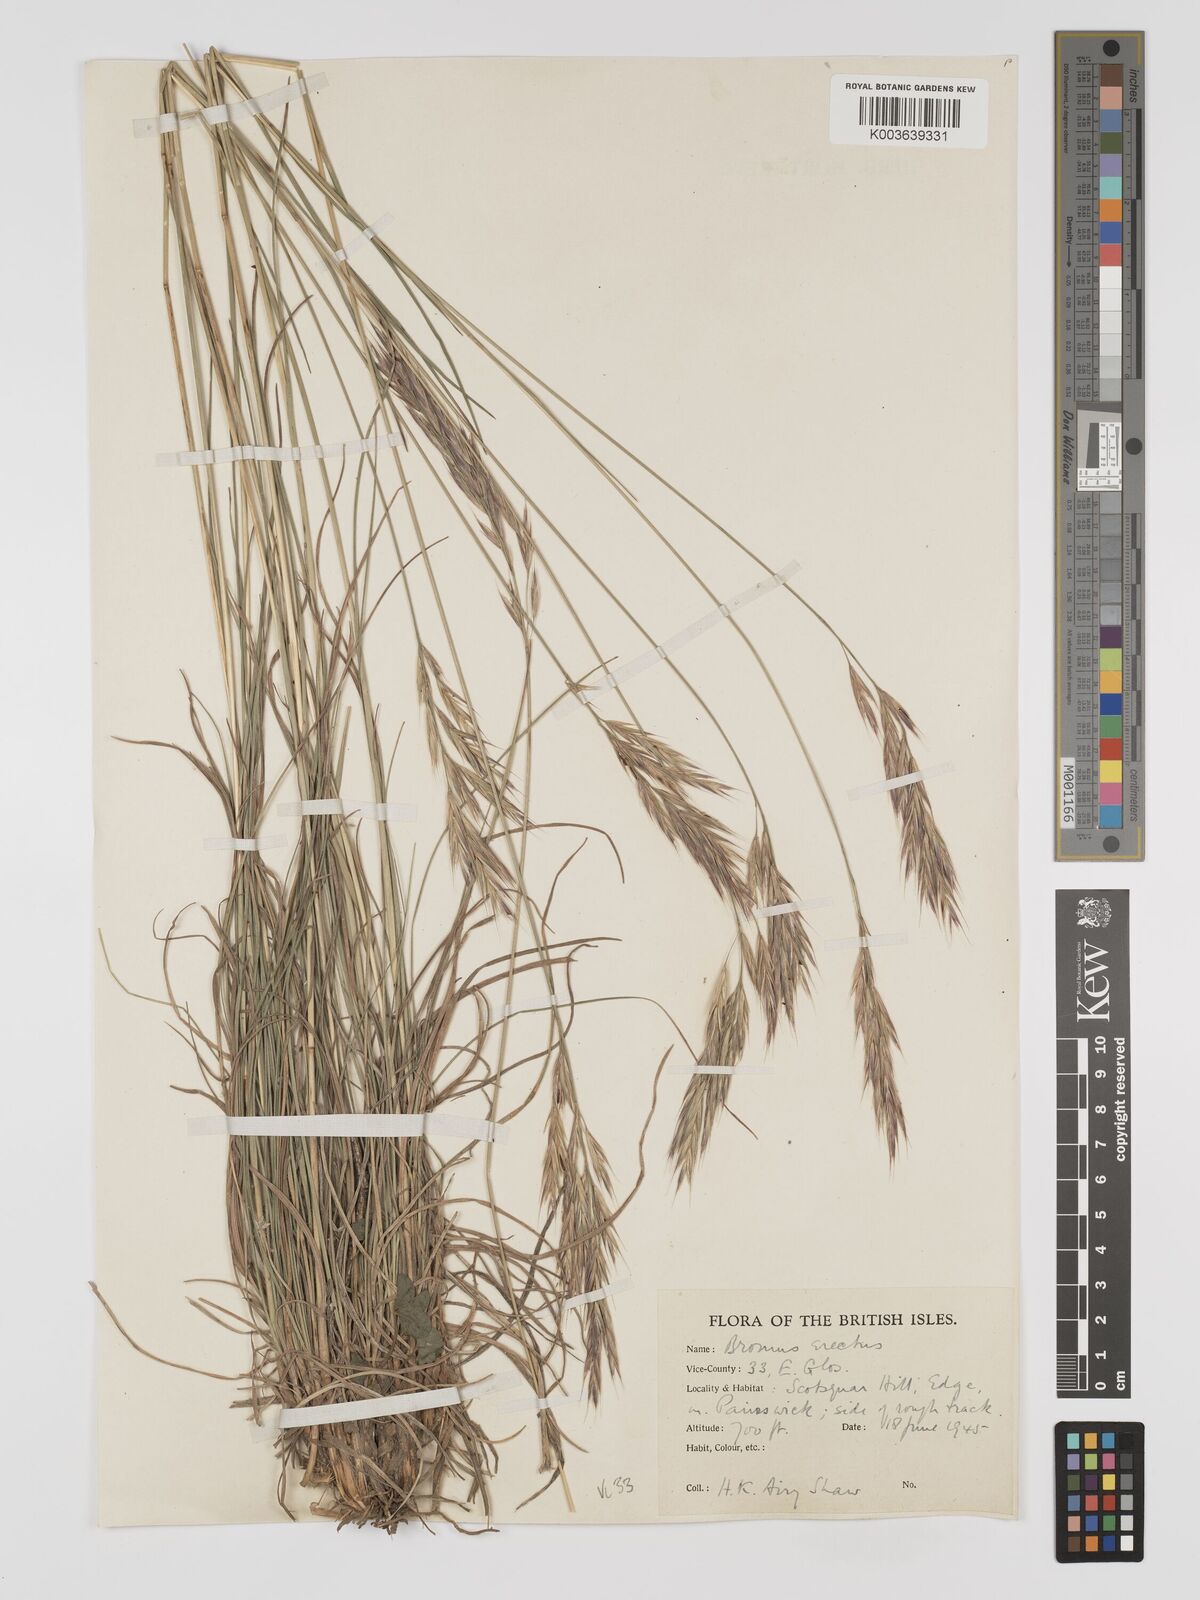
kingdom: Plantae
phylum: Tracheophyta
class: Liliopsida
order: Poales
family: Poaceae
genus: Bromus
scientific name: Bromus erectus
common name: Erect brome
